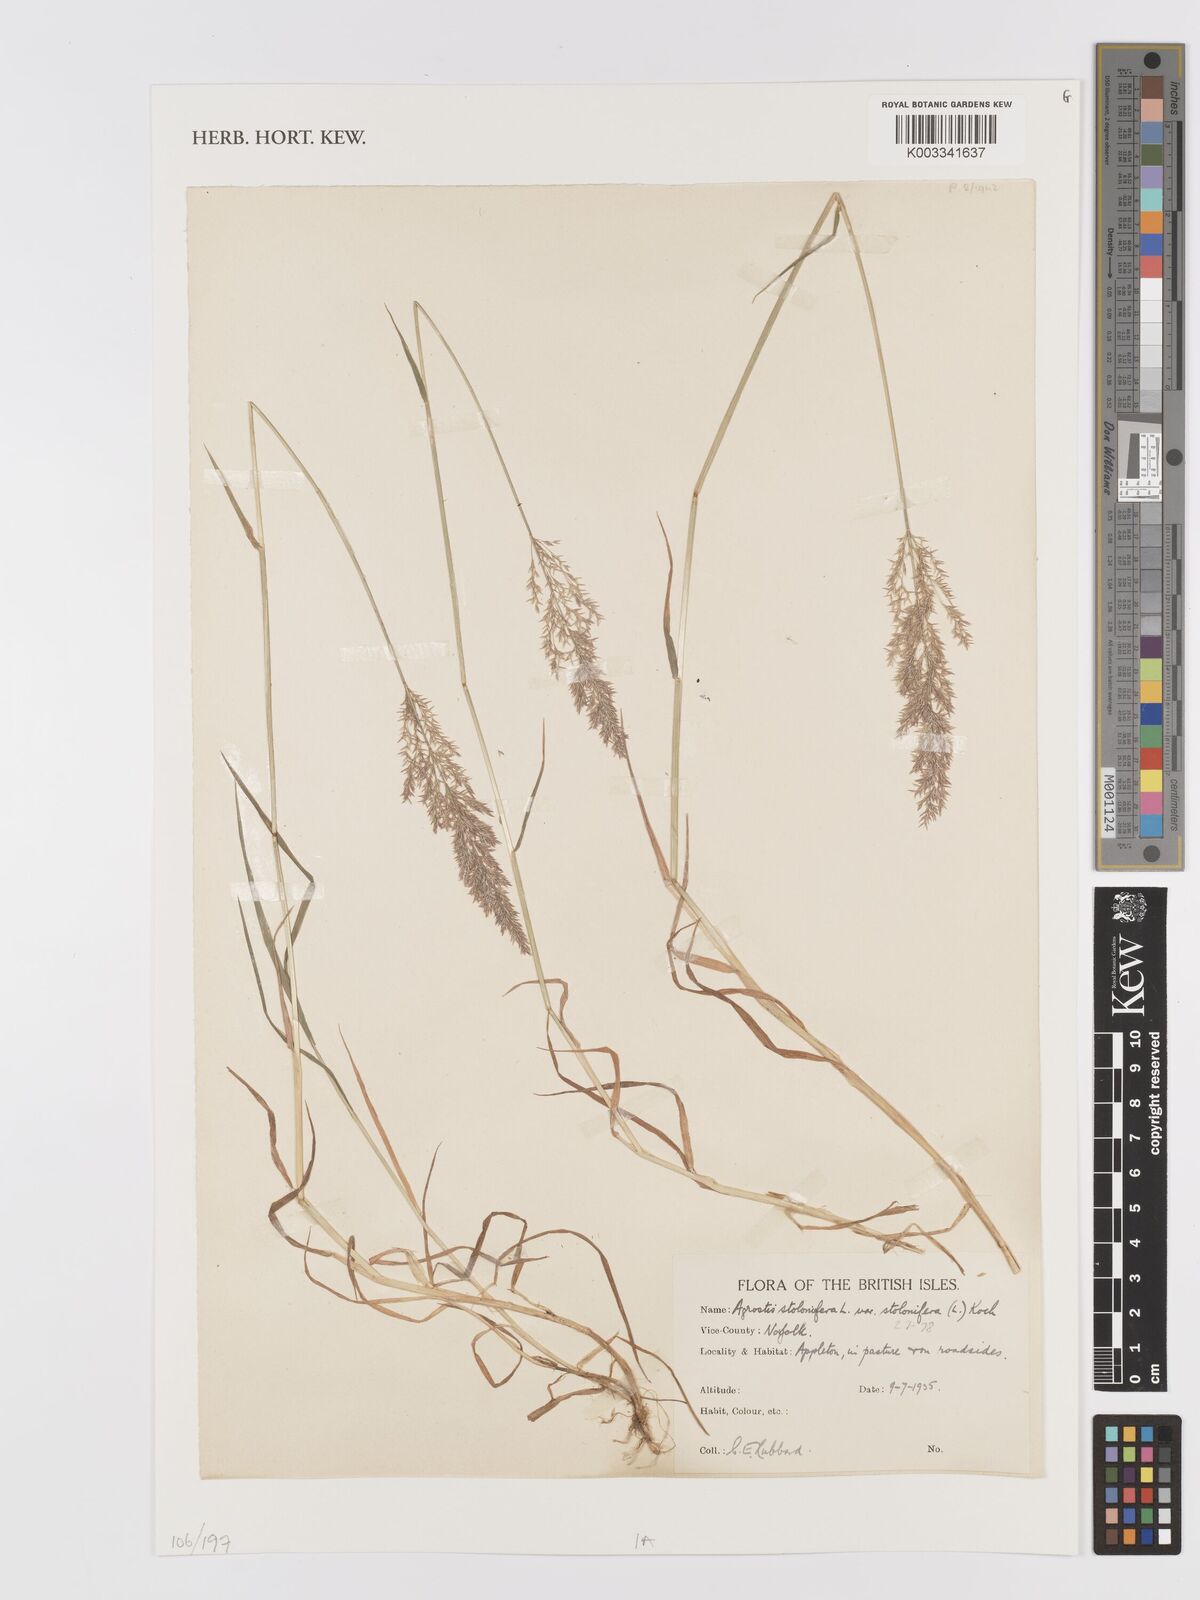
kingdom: Plantae
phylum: Tracheophyta
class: Liliopsida
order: Poales
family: Poaceae
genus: Agrostis
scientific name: Agrostis stolonifera
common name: Creeping bentgrass
